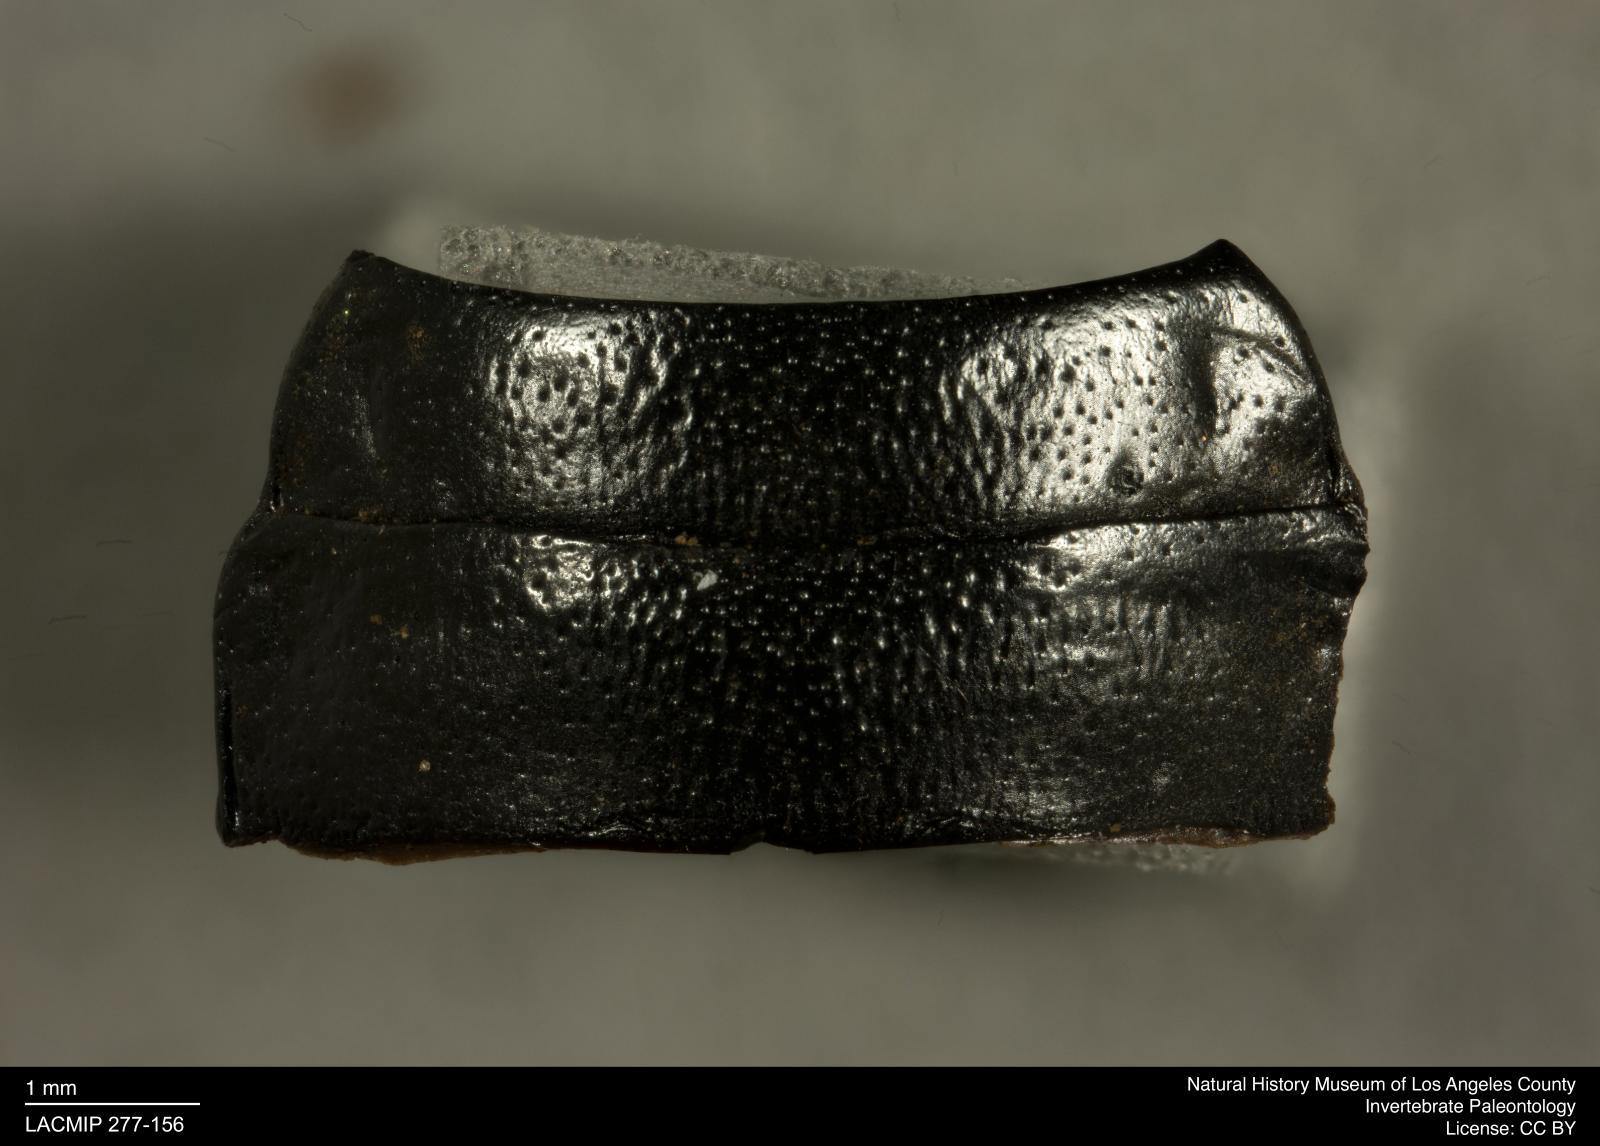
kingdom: Animalia
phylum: Arthropoda
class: Insecta
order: Coleoptera
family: Tenebrionidae
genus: Coniontis
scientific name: Coniontis abdominalis
